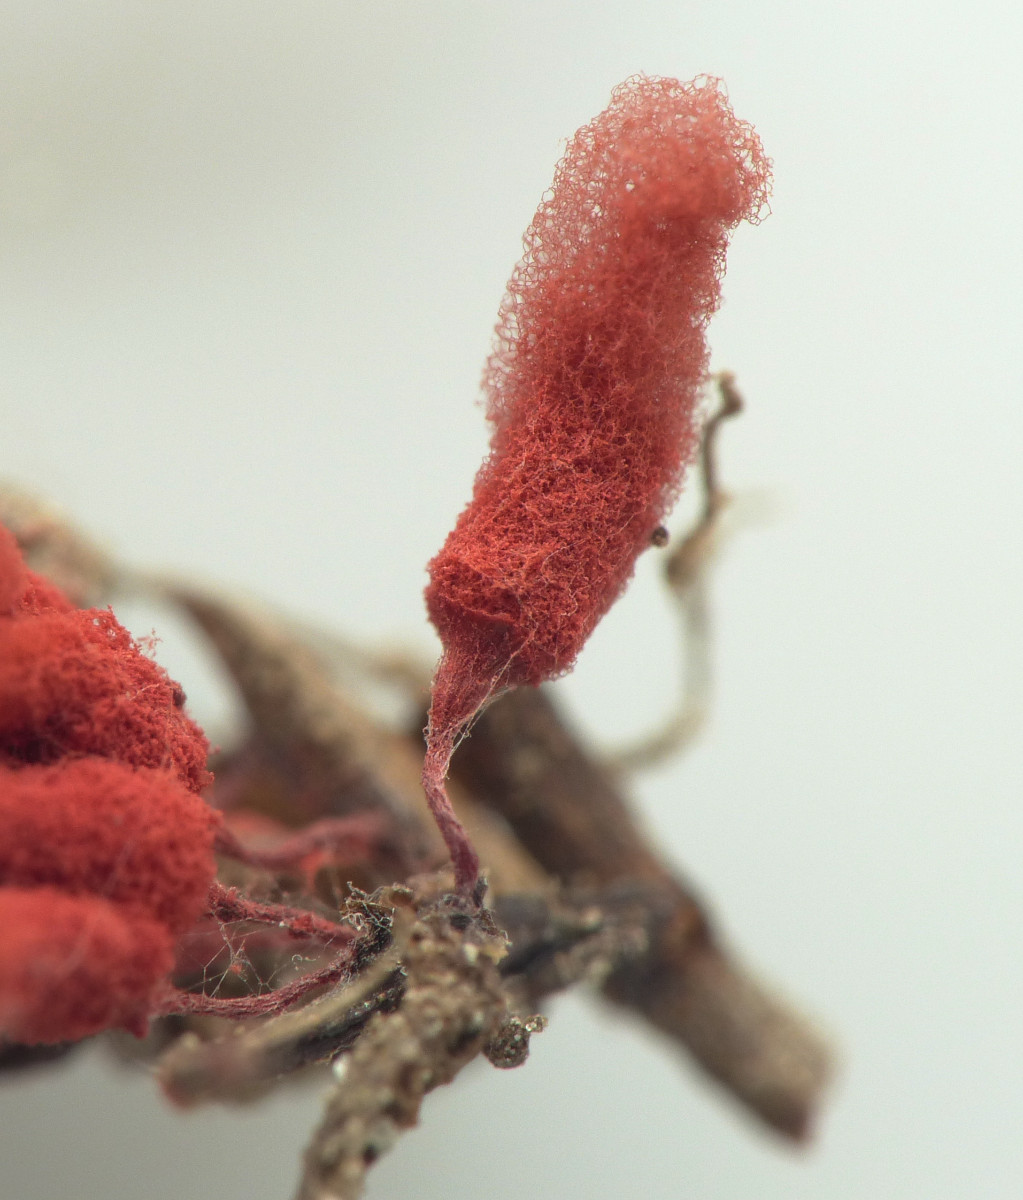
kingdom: Protozoa
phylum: Mycetozoa
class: Myxomycetes
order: Trichiales
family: Arcyriaceae
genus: Arcyria
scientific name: Arcyria denudata
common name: karminrød skålsvøb
